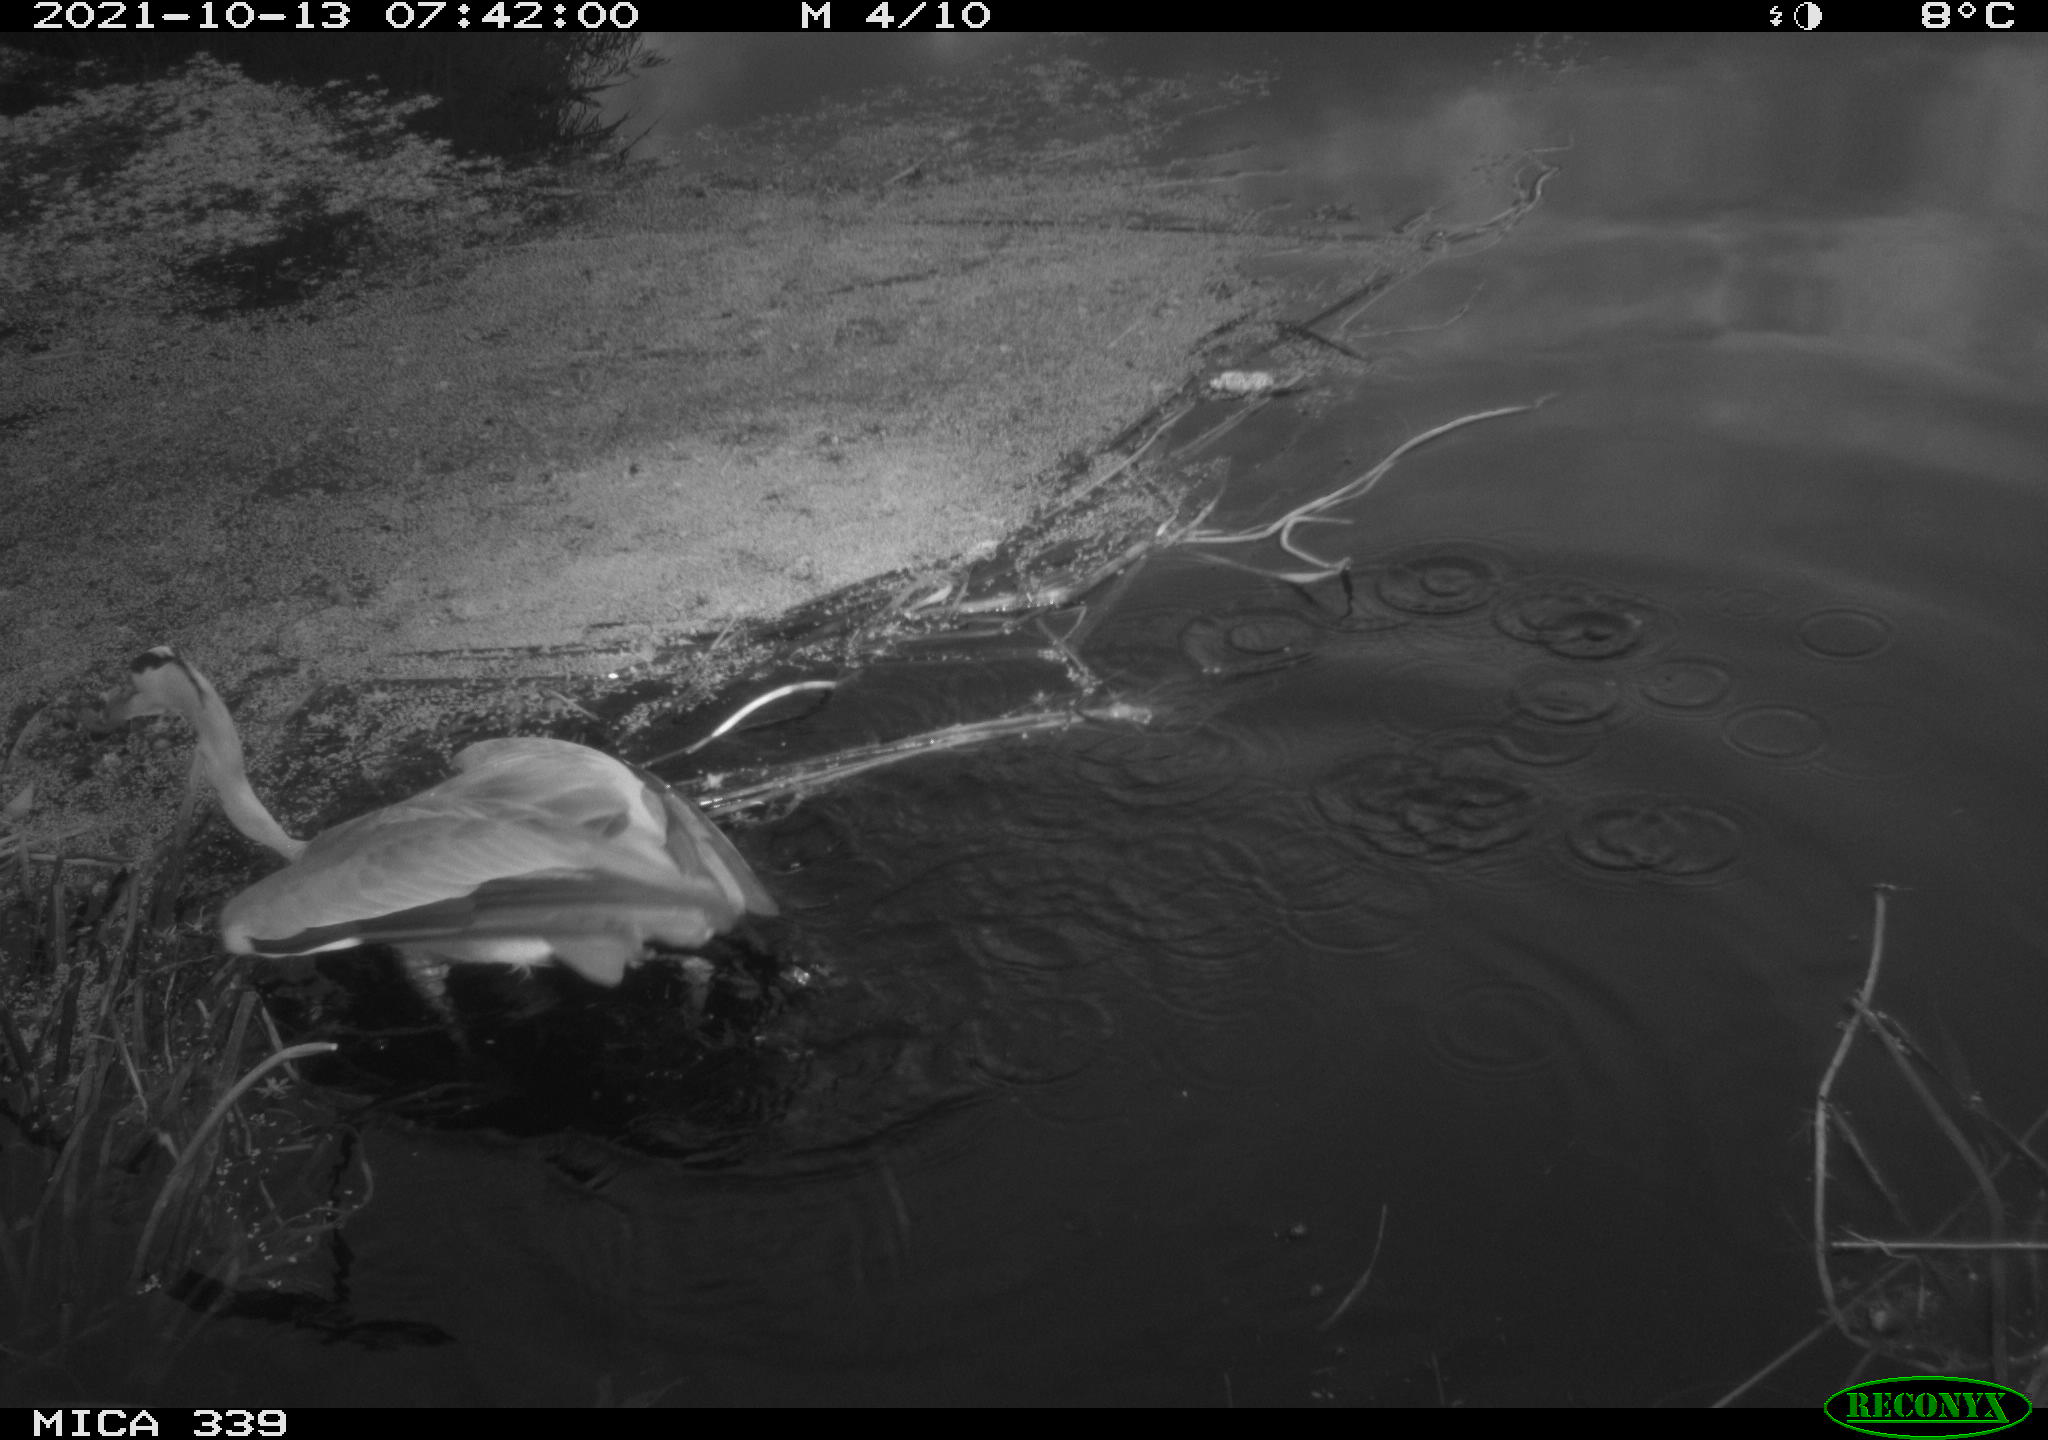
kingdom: Animalia
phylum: Chordata
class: Aves
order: Pelecaniformes
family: Ardeidae
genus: Ardea
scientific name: Ardea cinerea
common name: Grey heron
